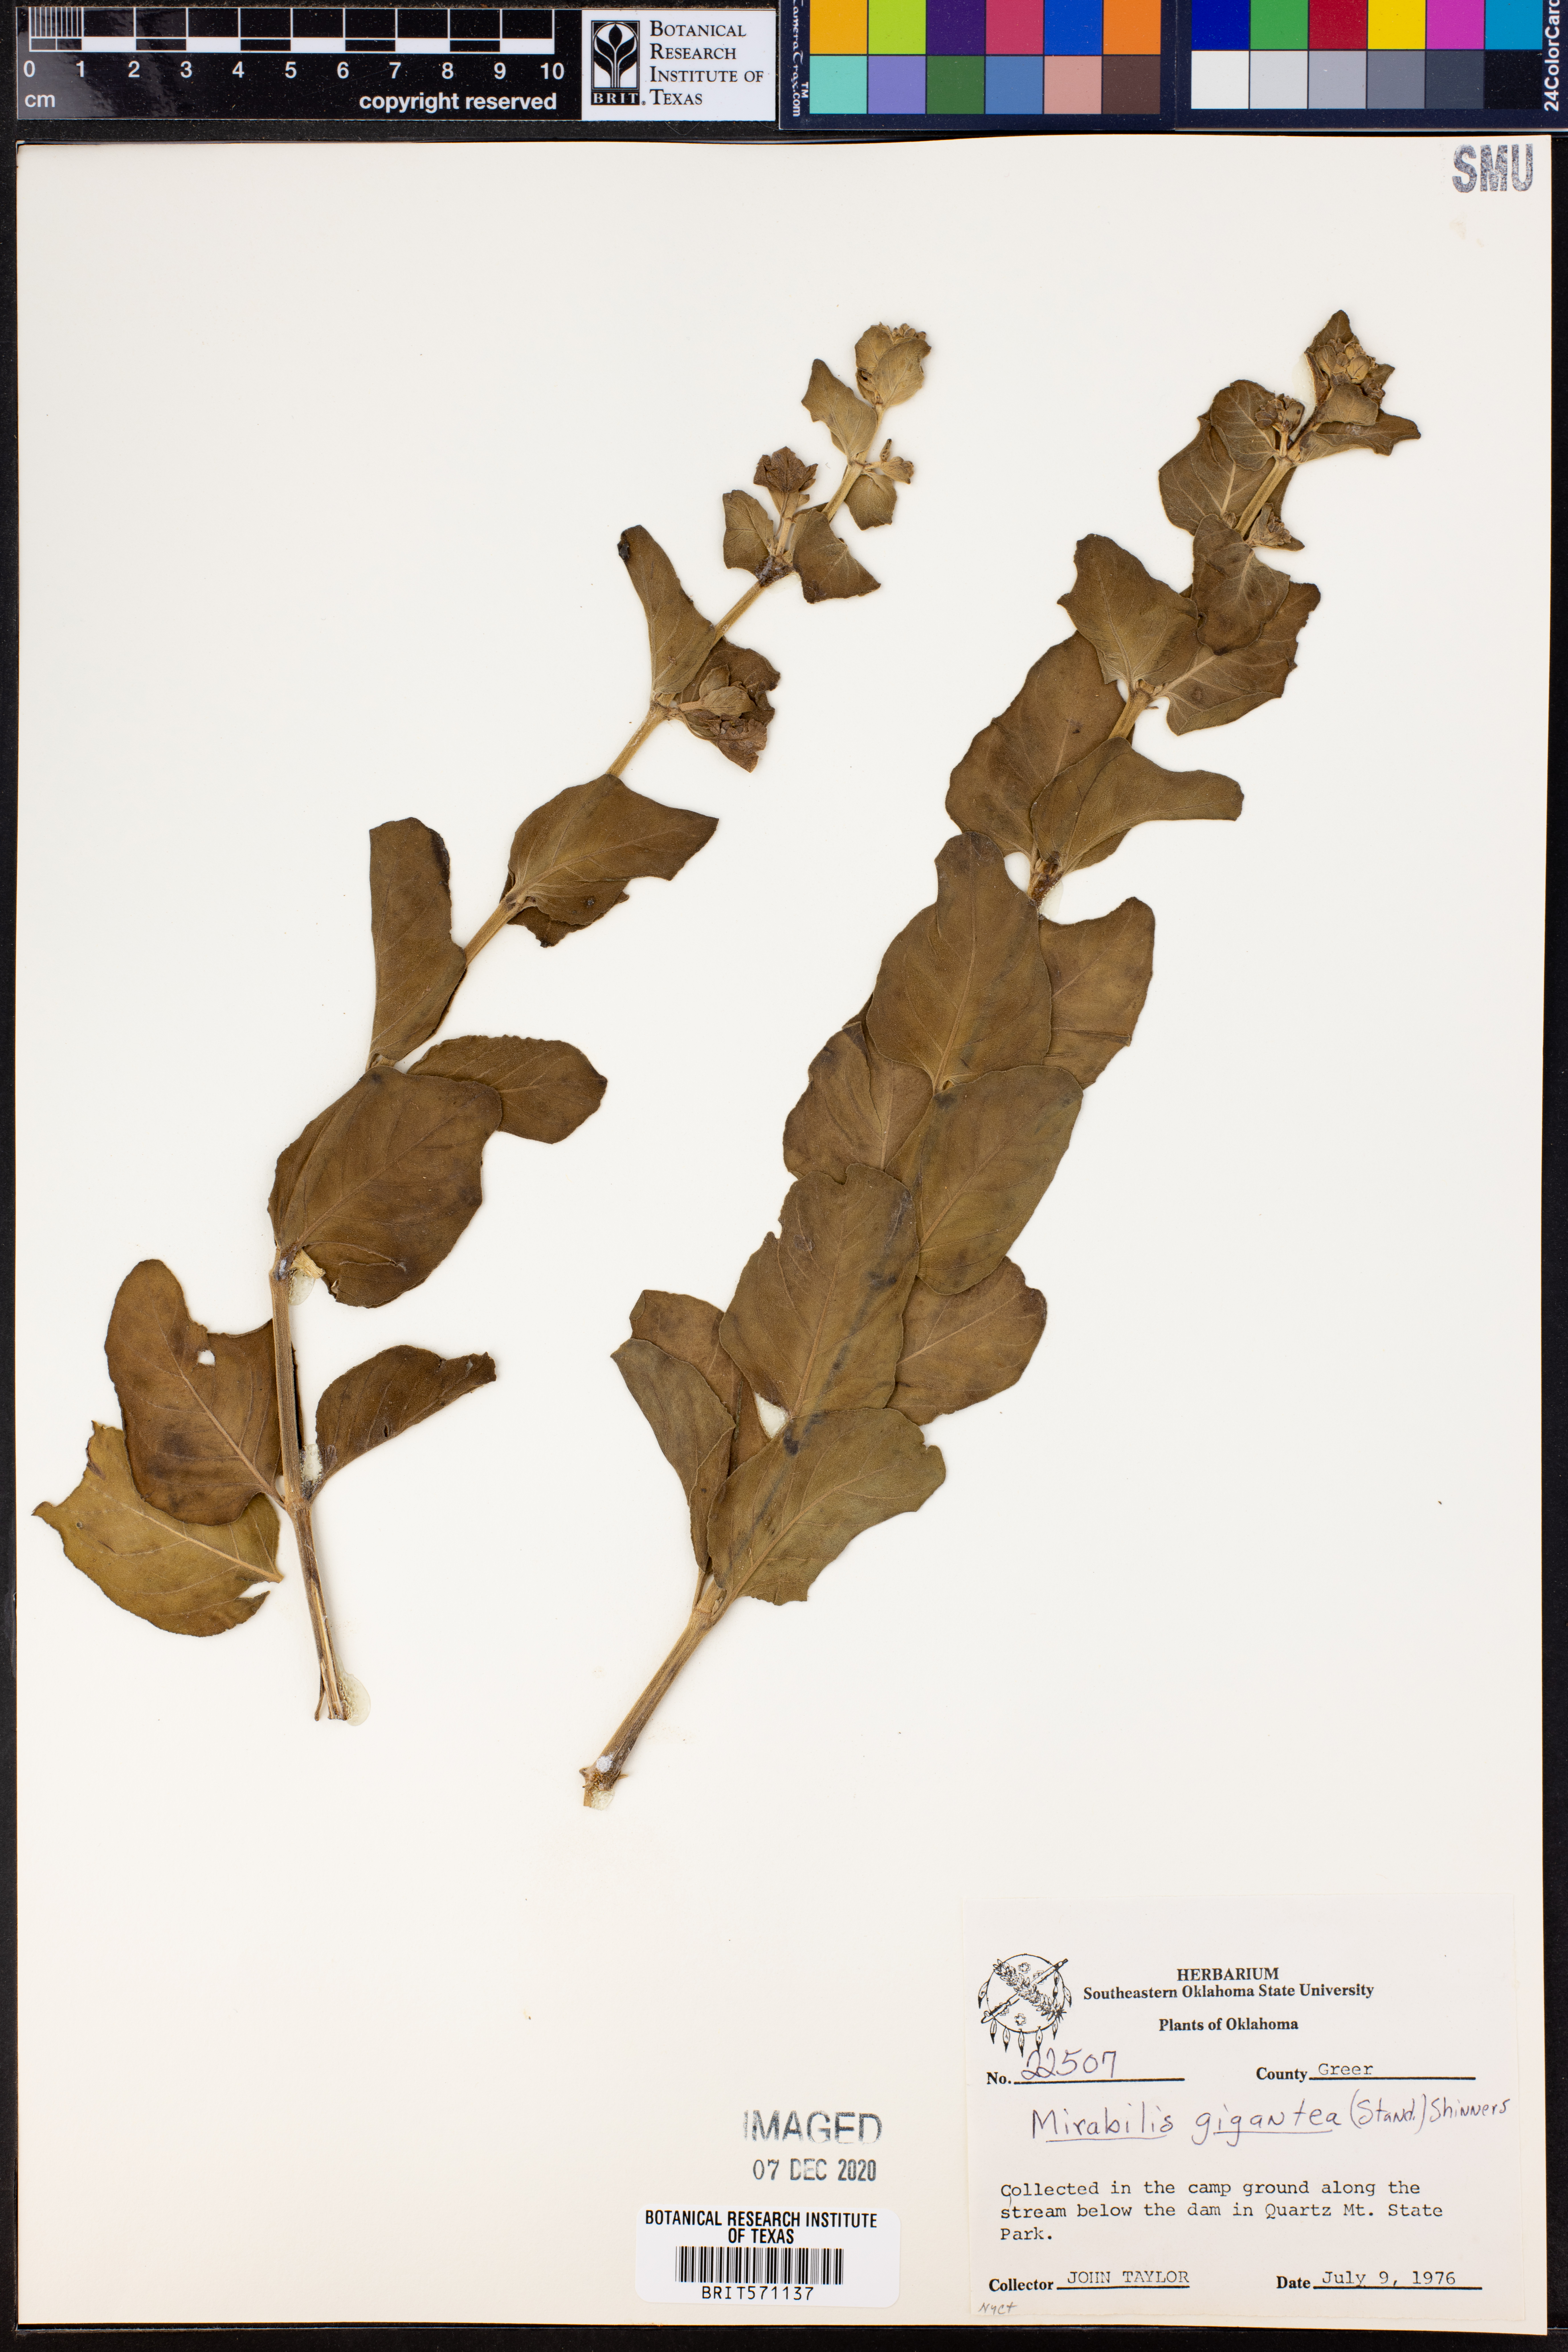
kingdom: Plantae
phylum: Tracheophyta
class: Magnoliopsida
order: Caryophyllales
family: Nyctaginaceae
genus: Mirabilis
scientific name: Mirabilis gigantea
